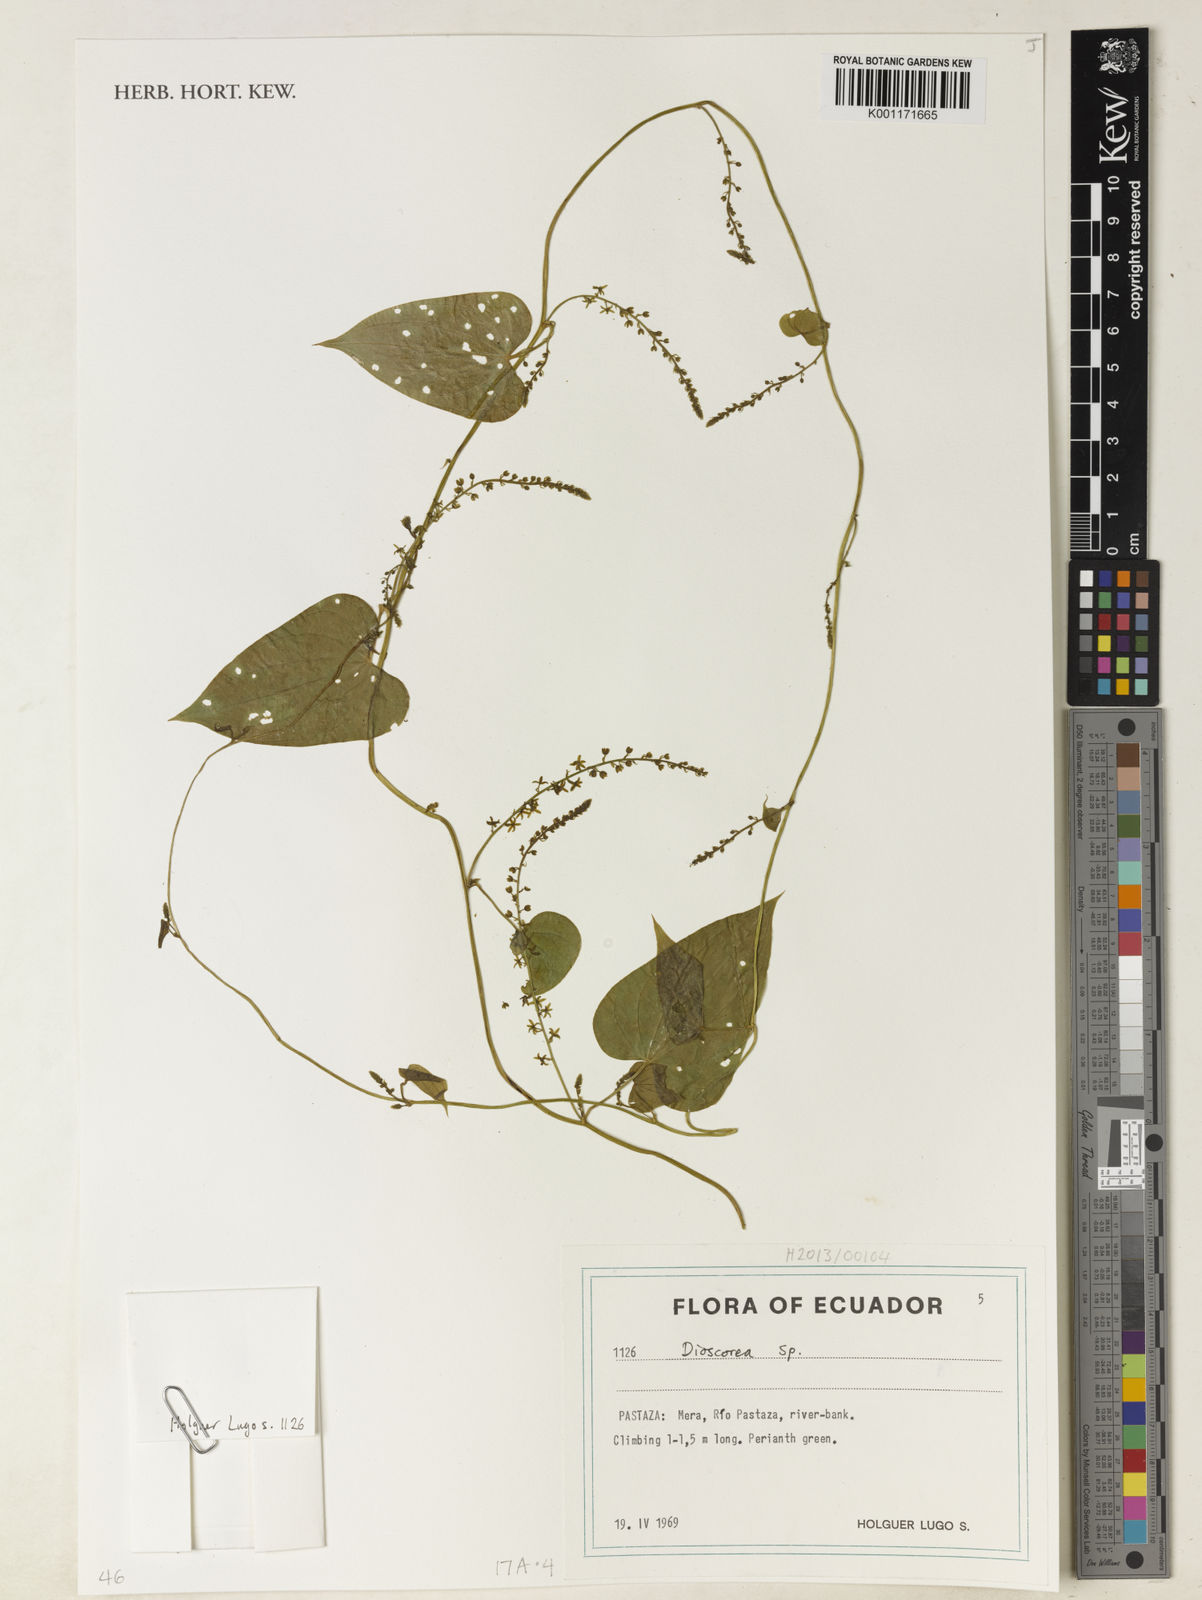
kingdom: Plantae
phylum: Tracheophyta
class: Liliopsida
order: Dioscoreales
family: Dioscoreaceae
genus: Dioscorea
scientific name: Dioscorea
